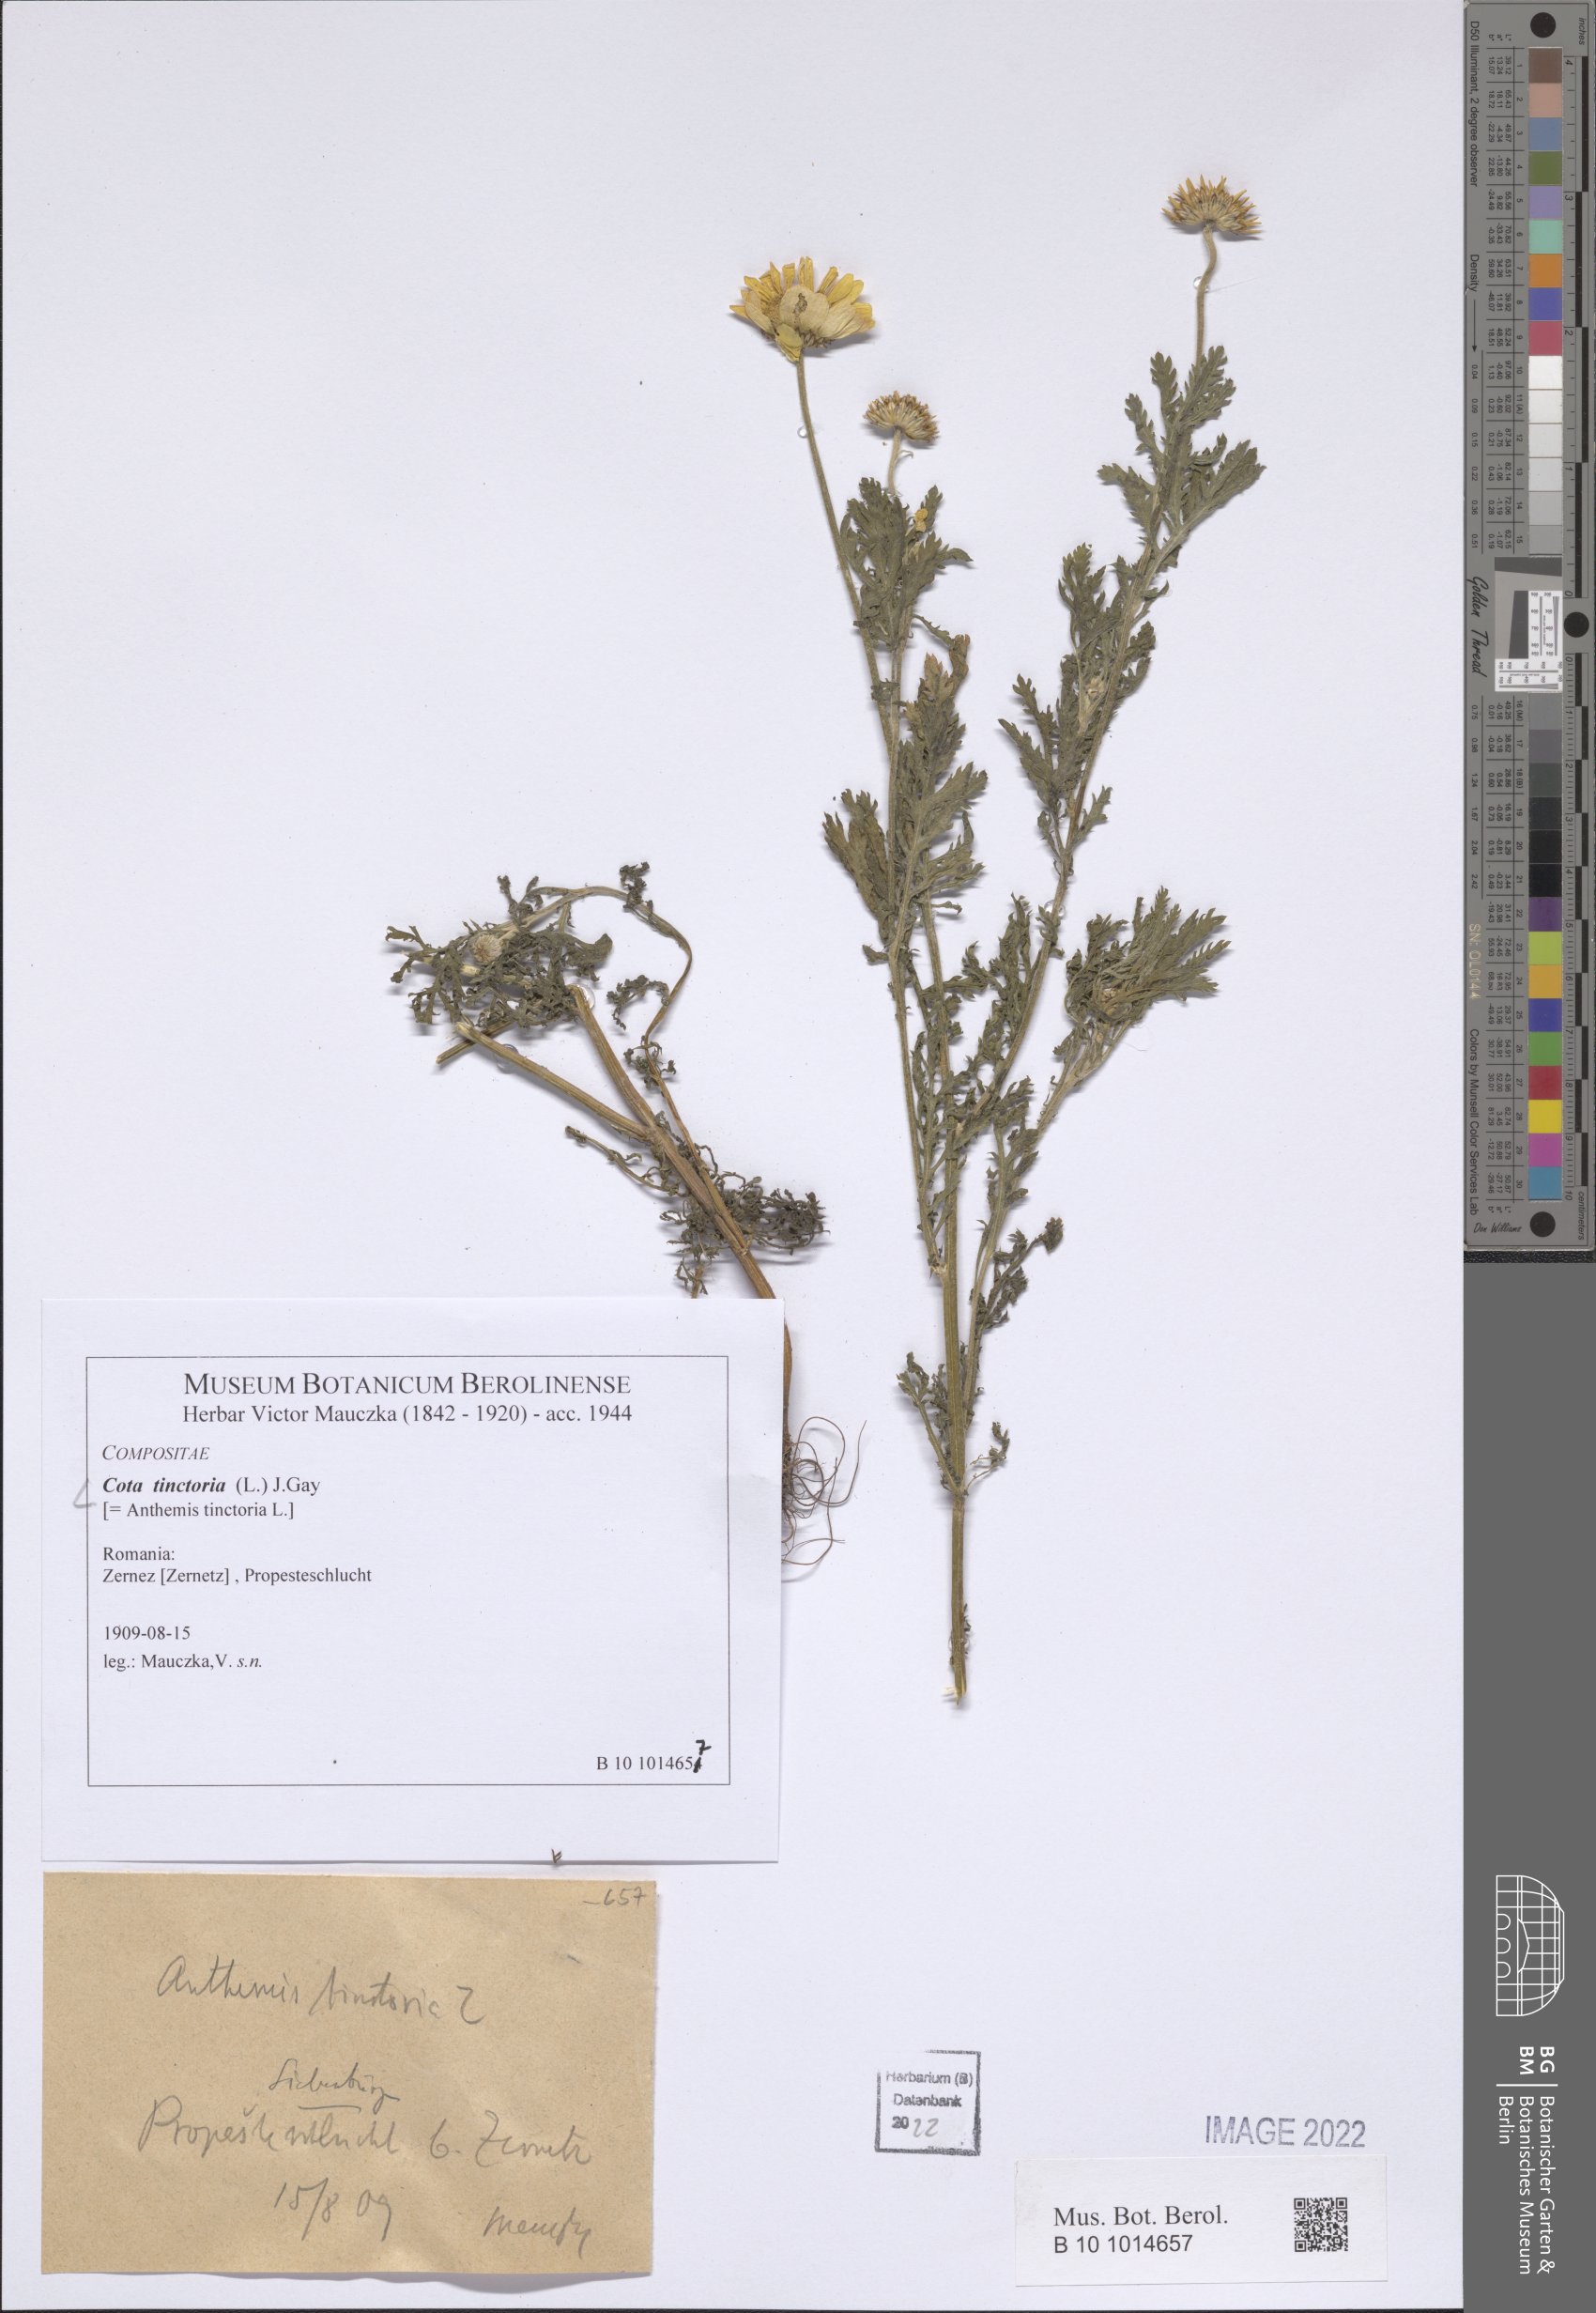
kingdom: Plantae
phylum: Tracheophyta
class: Magnoliopsida
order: Asterales
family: Asteraceae
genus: Cota
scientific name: Cota tinctoria
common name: Golden chamomile
